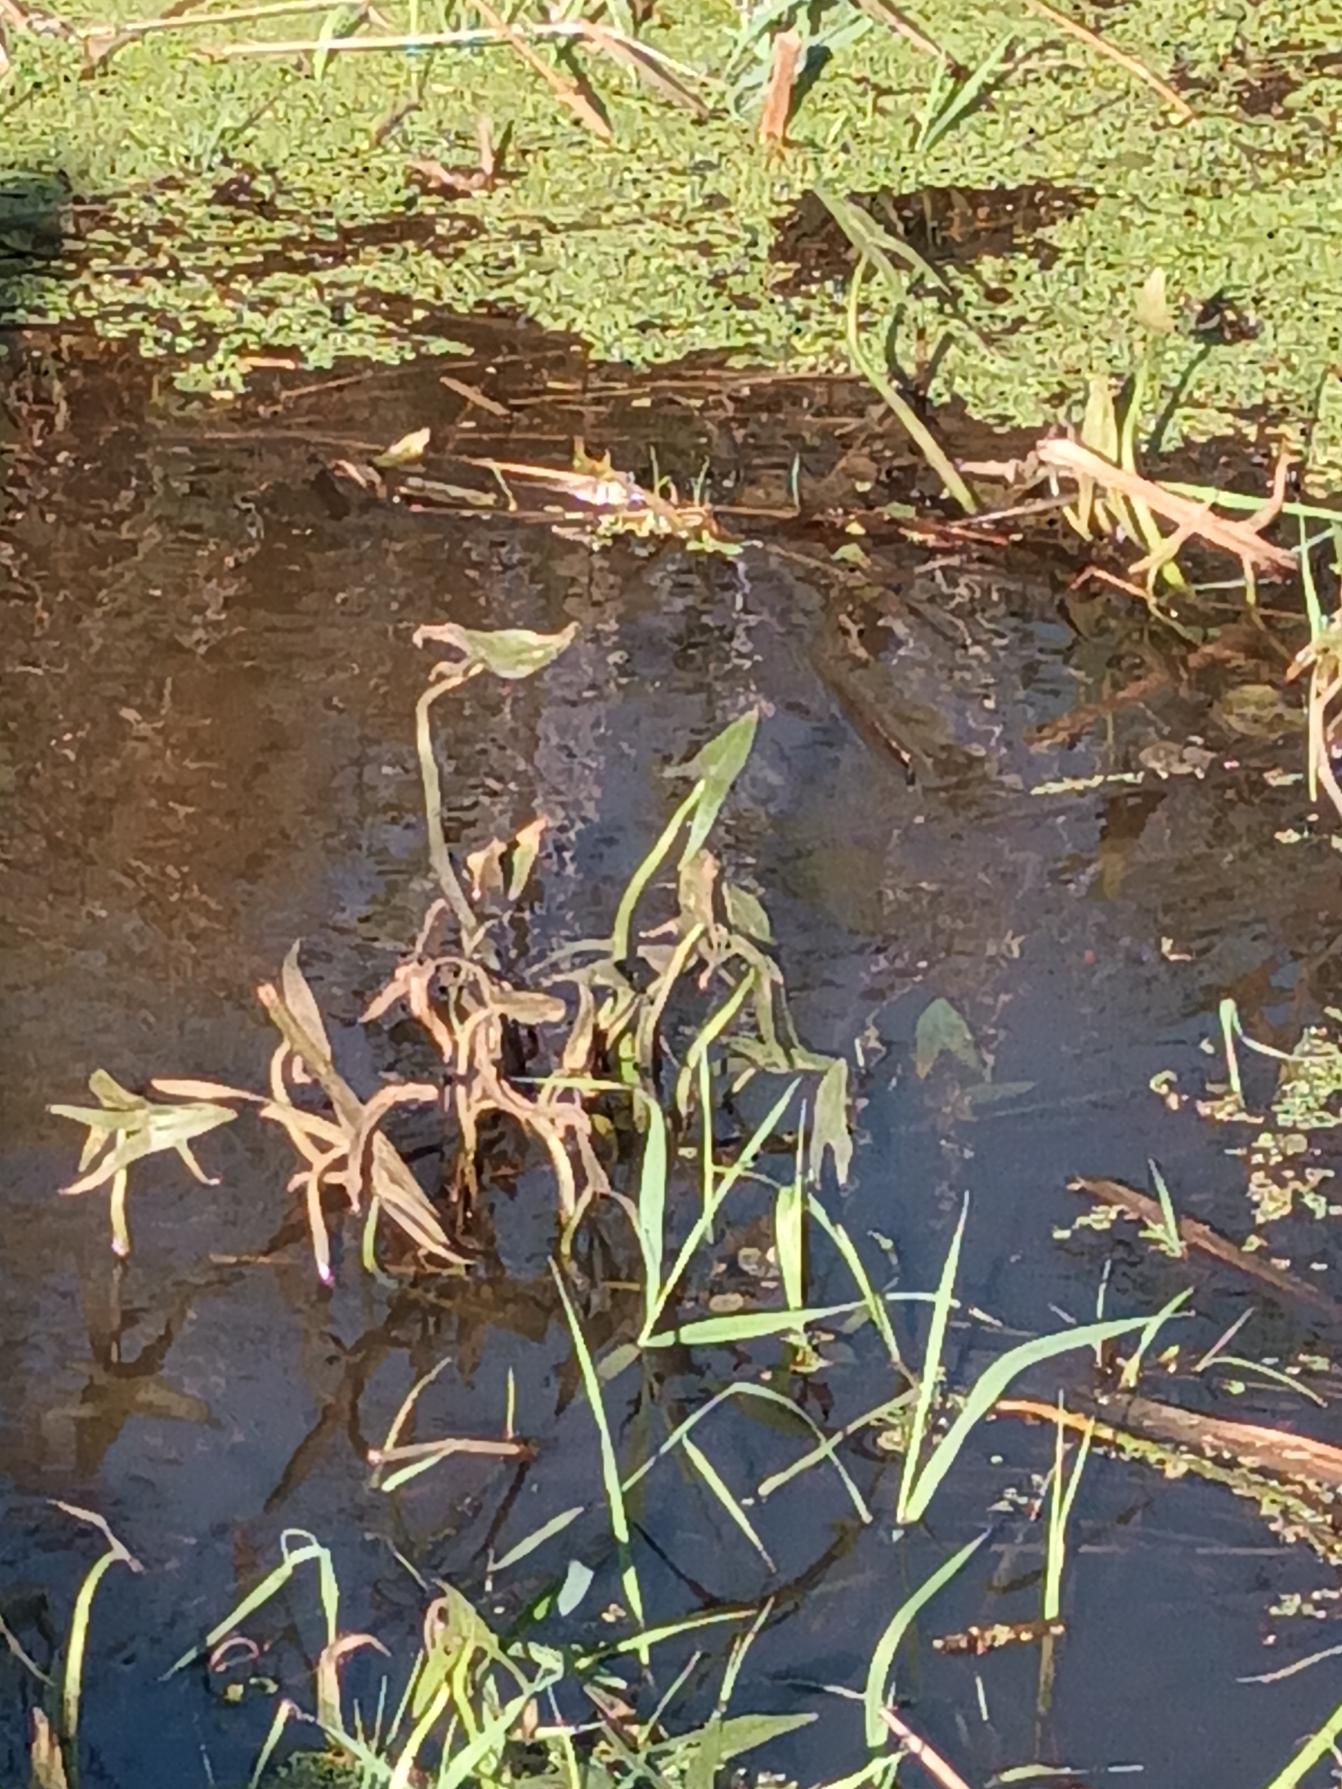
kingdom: Plantae
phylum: Tracheophyta
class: Liliopsida
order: Alismatales
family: Alismataceae
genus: Sagittaria
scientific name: Sagittaria sagittifolia
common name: Pilblad
